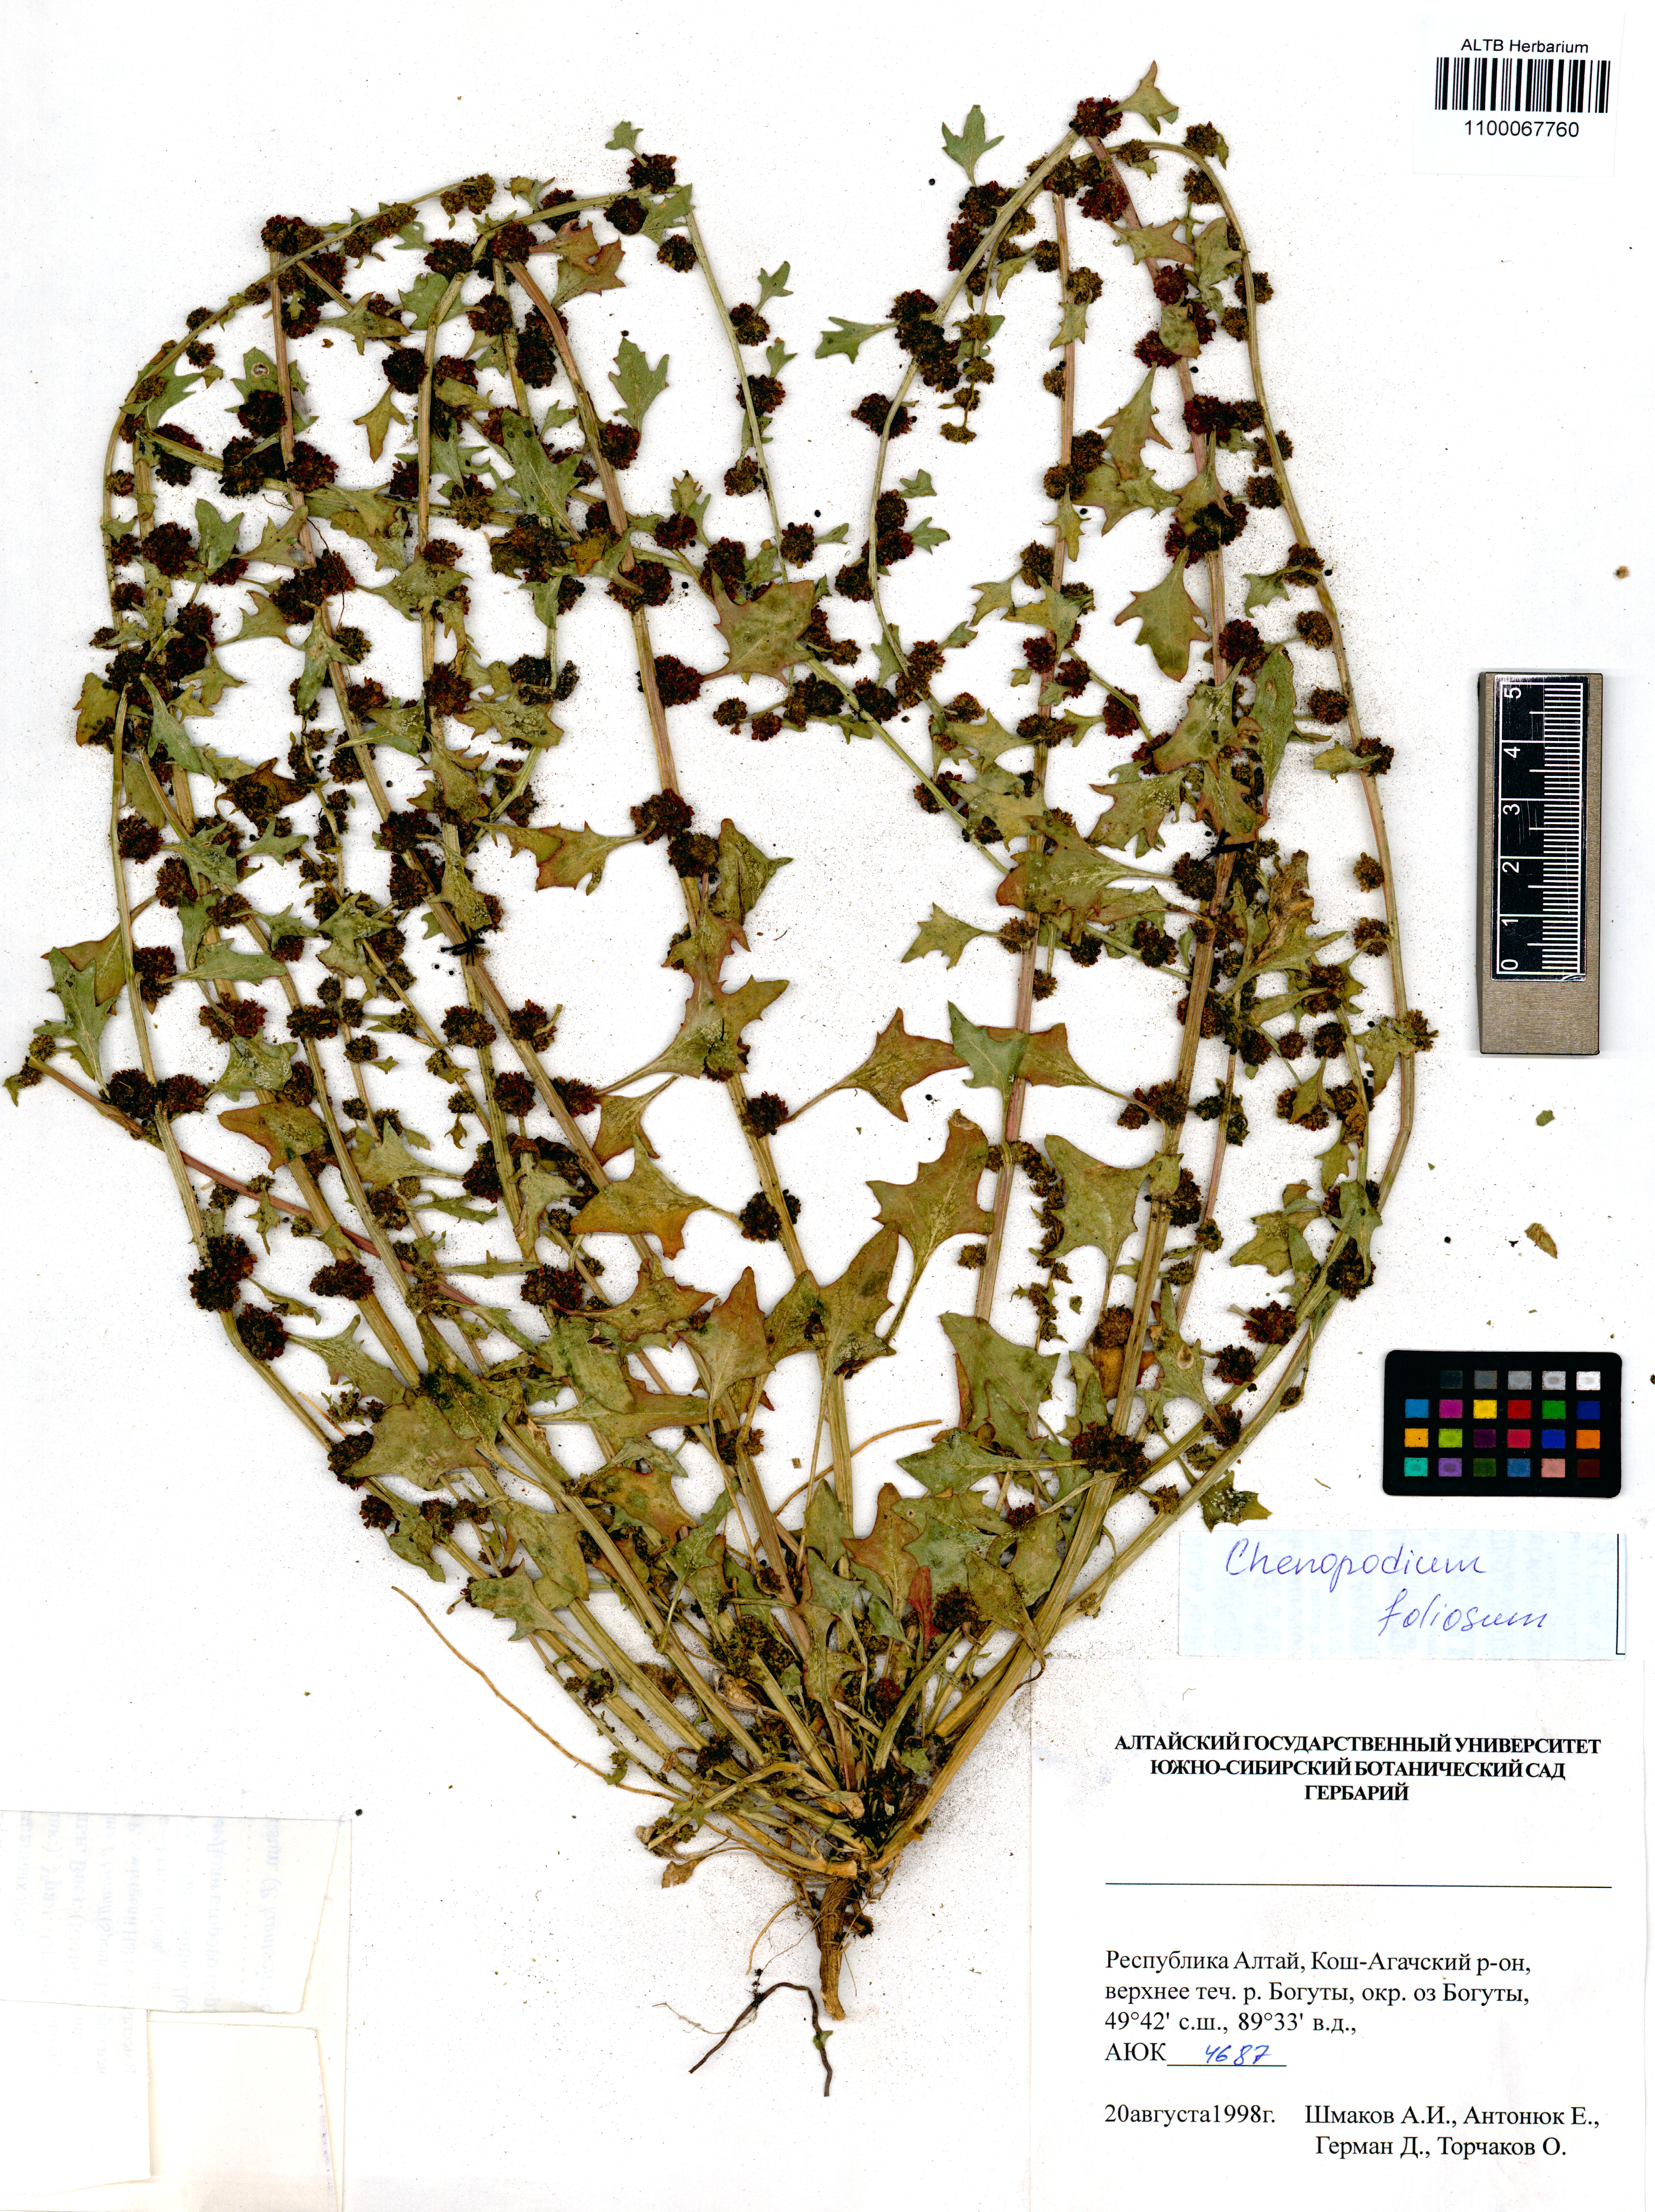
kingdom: Plantae
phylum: Tracheophyta
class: Magnoliopsida
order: Caryophyllales
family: Amaranthaceae
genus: Blitum
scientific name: Blitum virgatum
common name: Strawberry goosefoot
